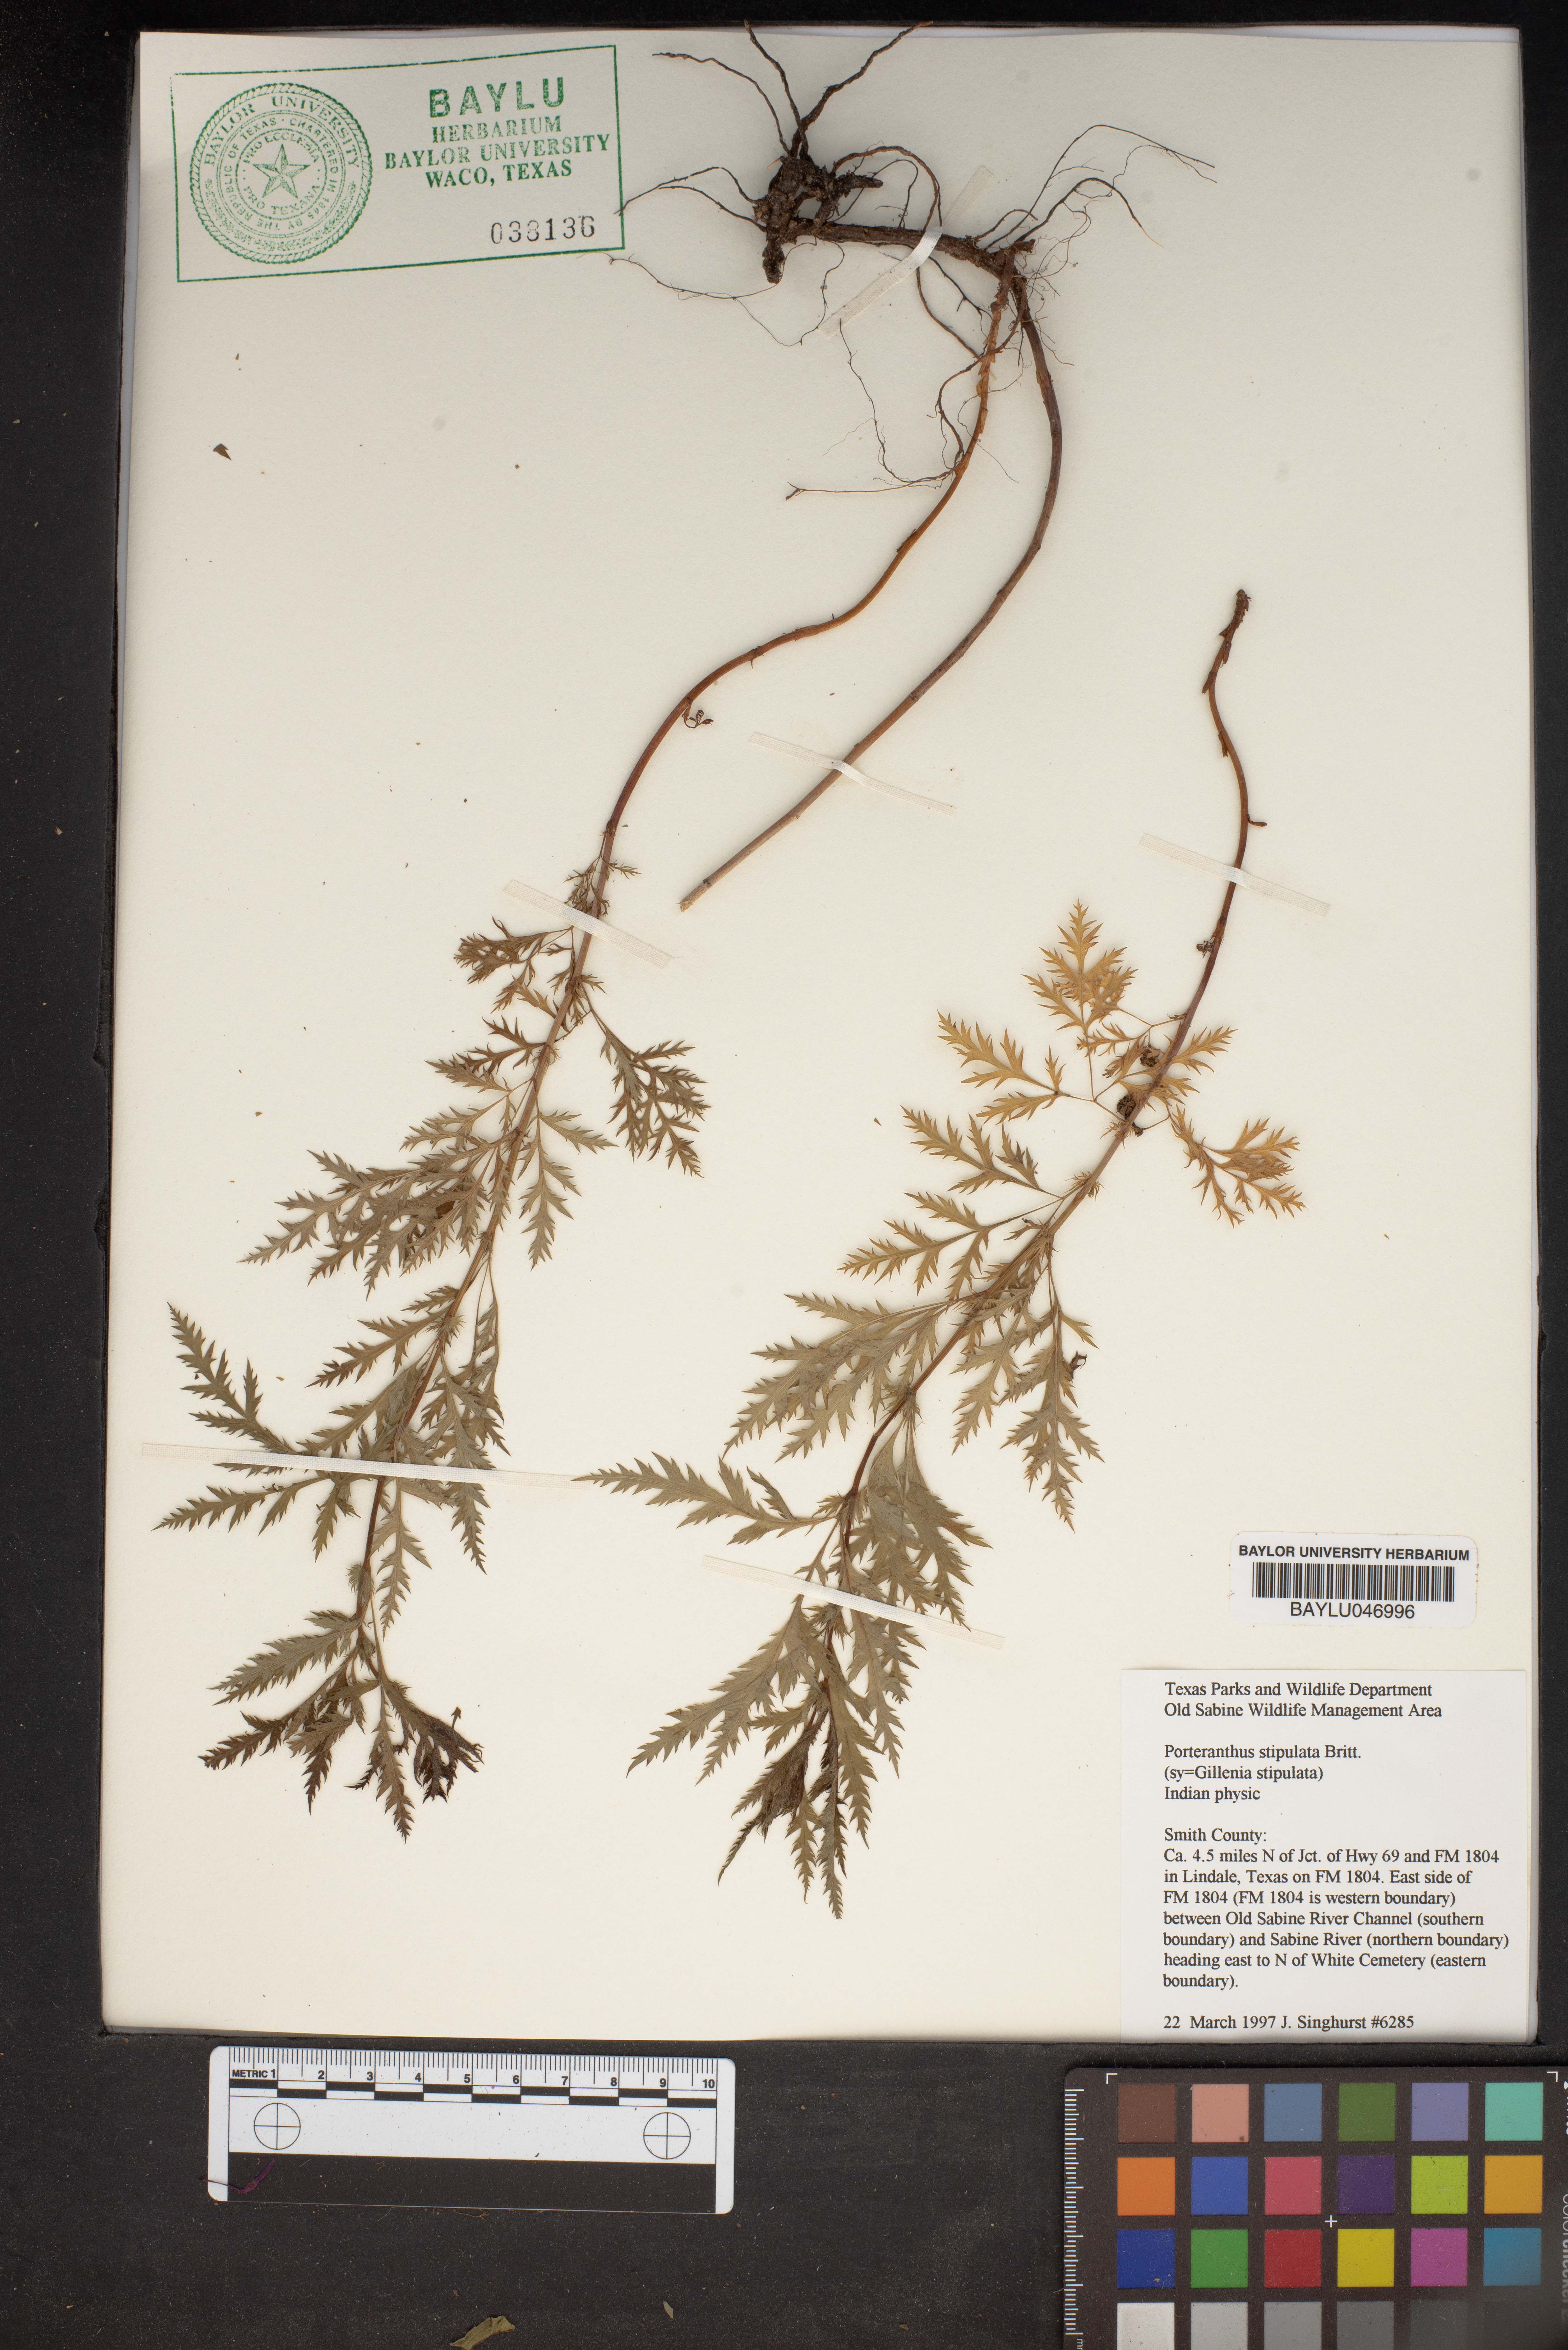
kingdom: Plantae
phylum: Tracheophyta
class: Magnoliopsida
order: Rosales
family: Rosaceae
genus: Gillenia
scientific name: Gillenia stipulata
